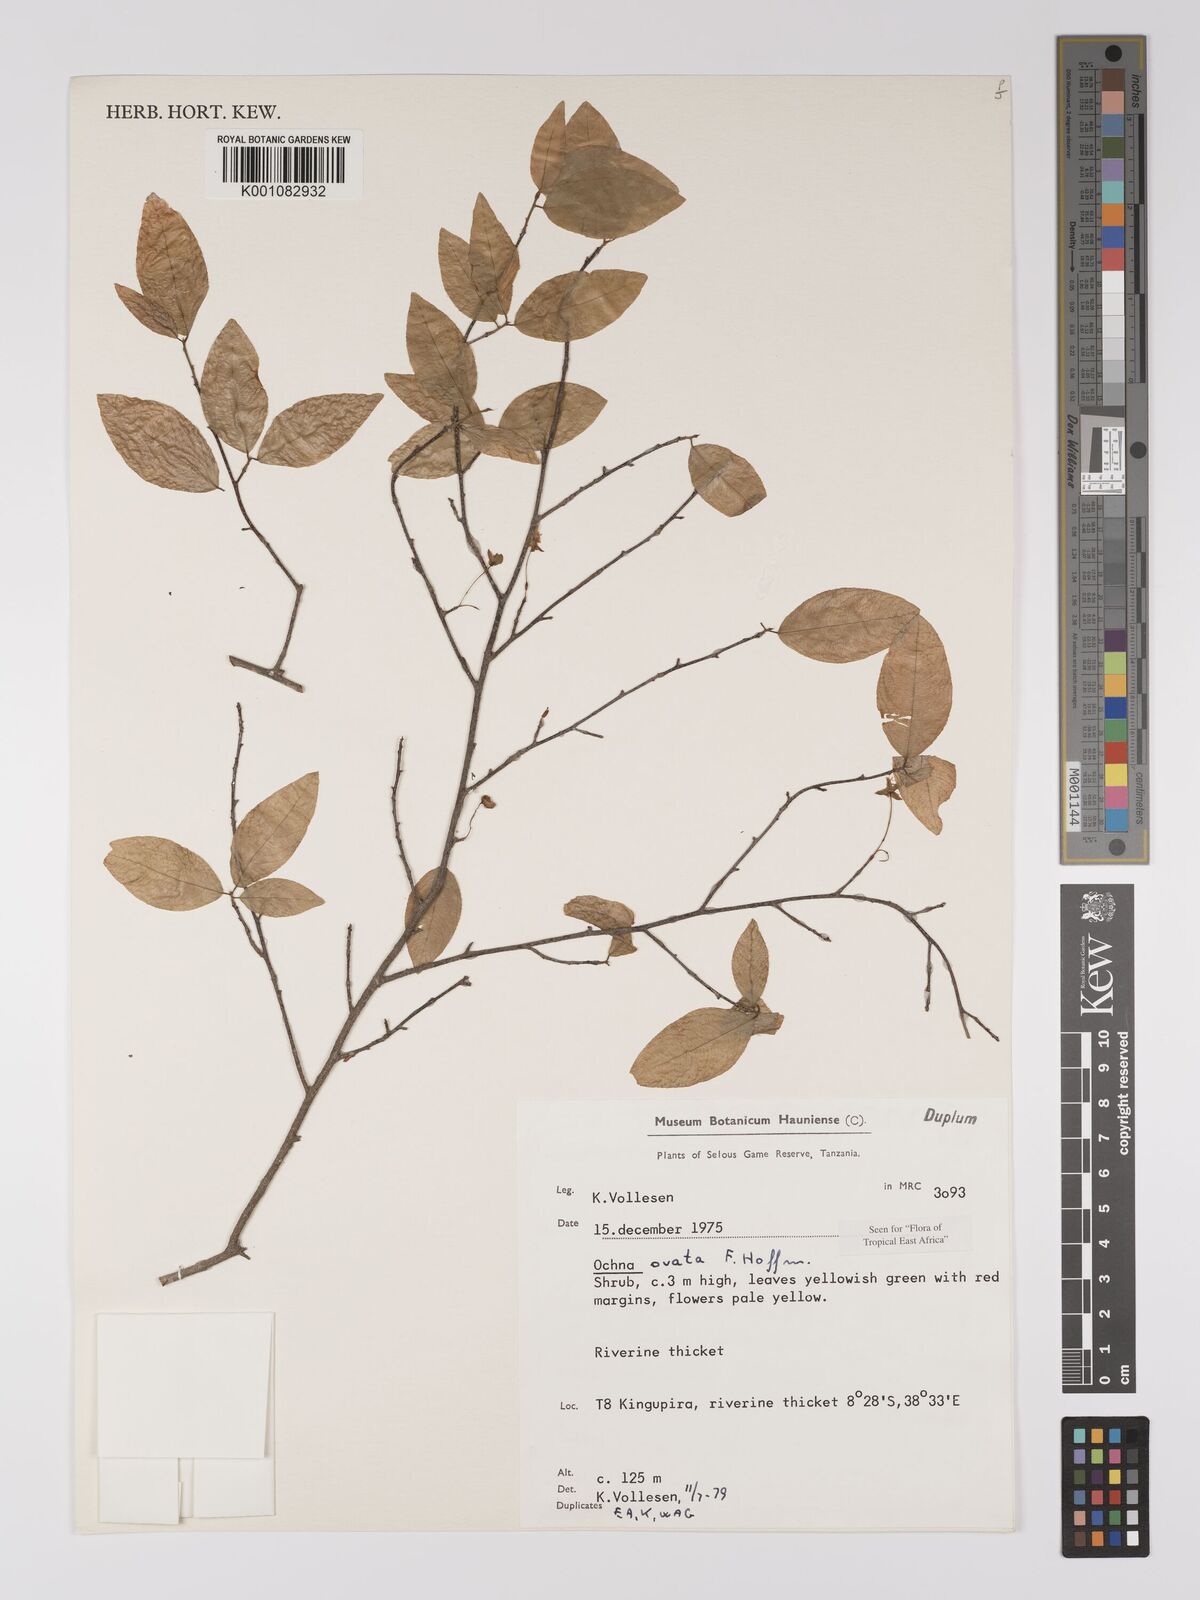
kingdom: Plantae
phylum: Tracheophyta
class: Magnoliopsida
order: Malpighiales
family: Ochnaceae
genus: Ochna
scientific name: Ochna ovata
